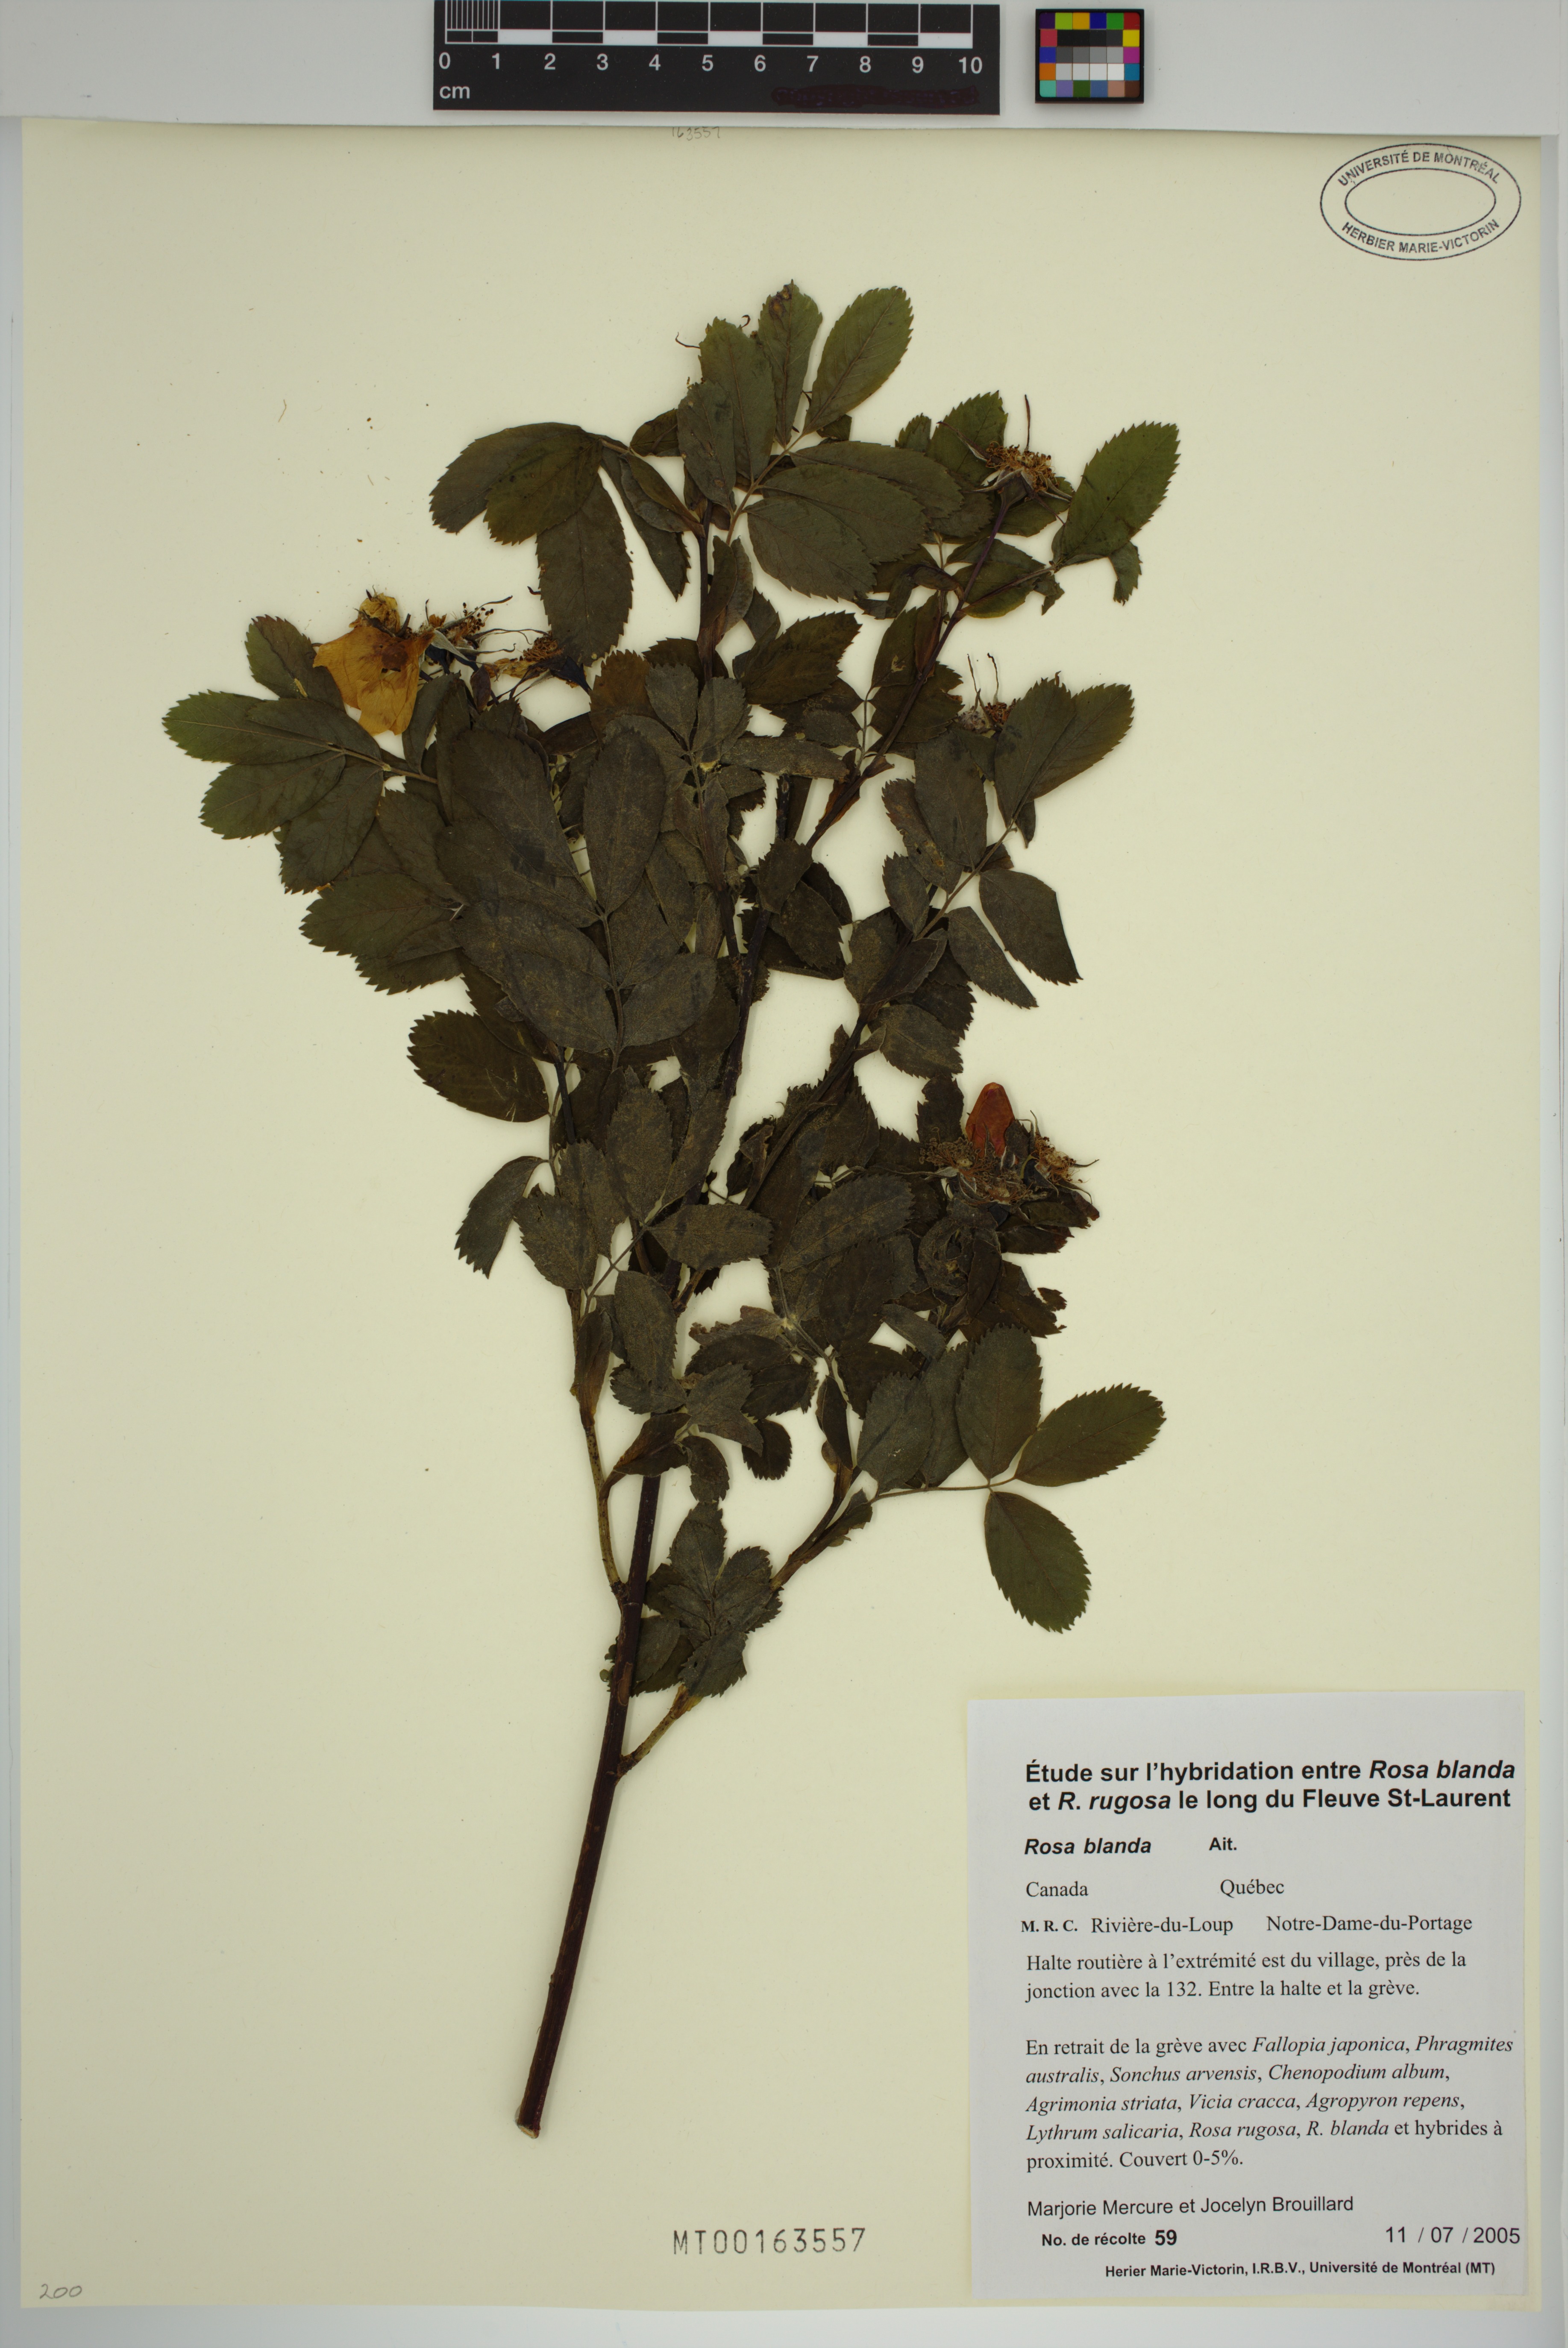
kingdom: Plantae
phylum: Tracheophyta
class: Magnoliopsida
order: Rosales
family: Rosaceae
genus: Rosa
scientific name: Rosa blanda
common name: Smooth rose
